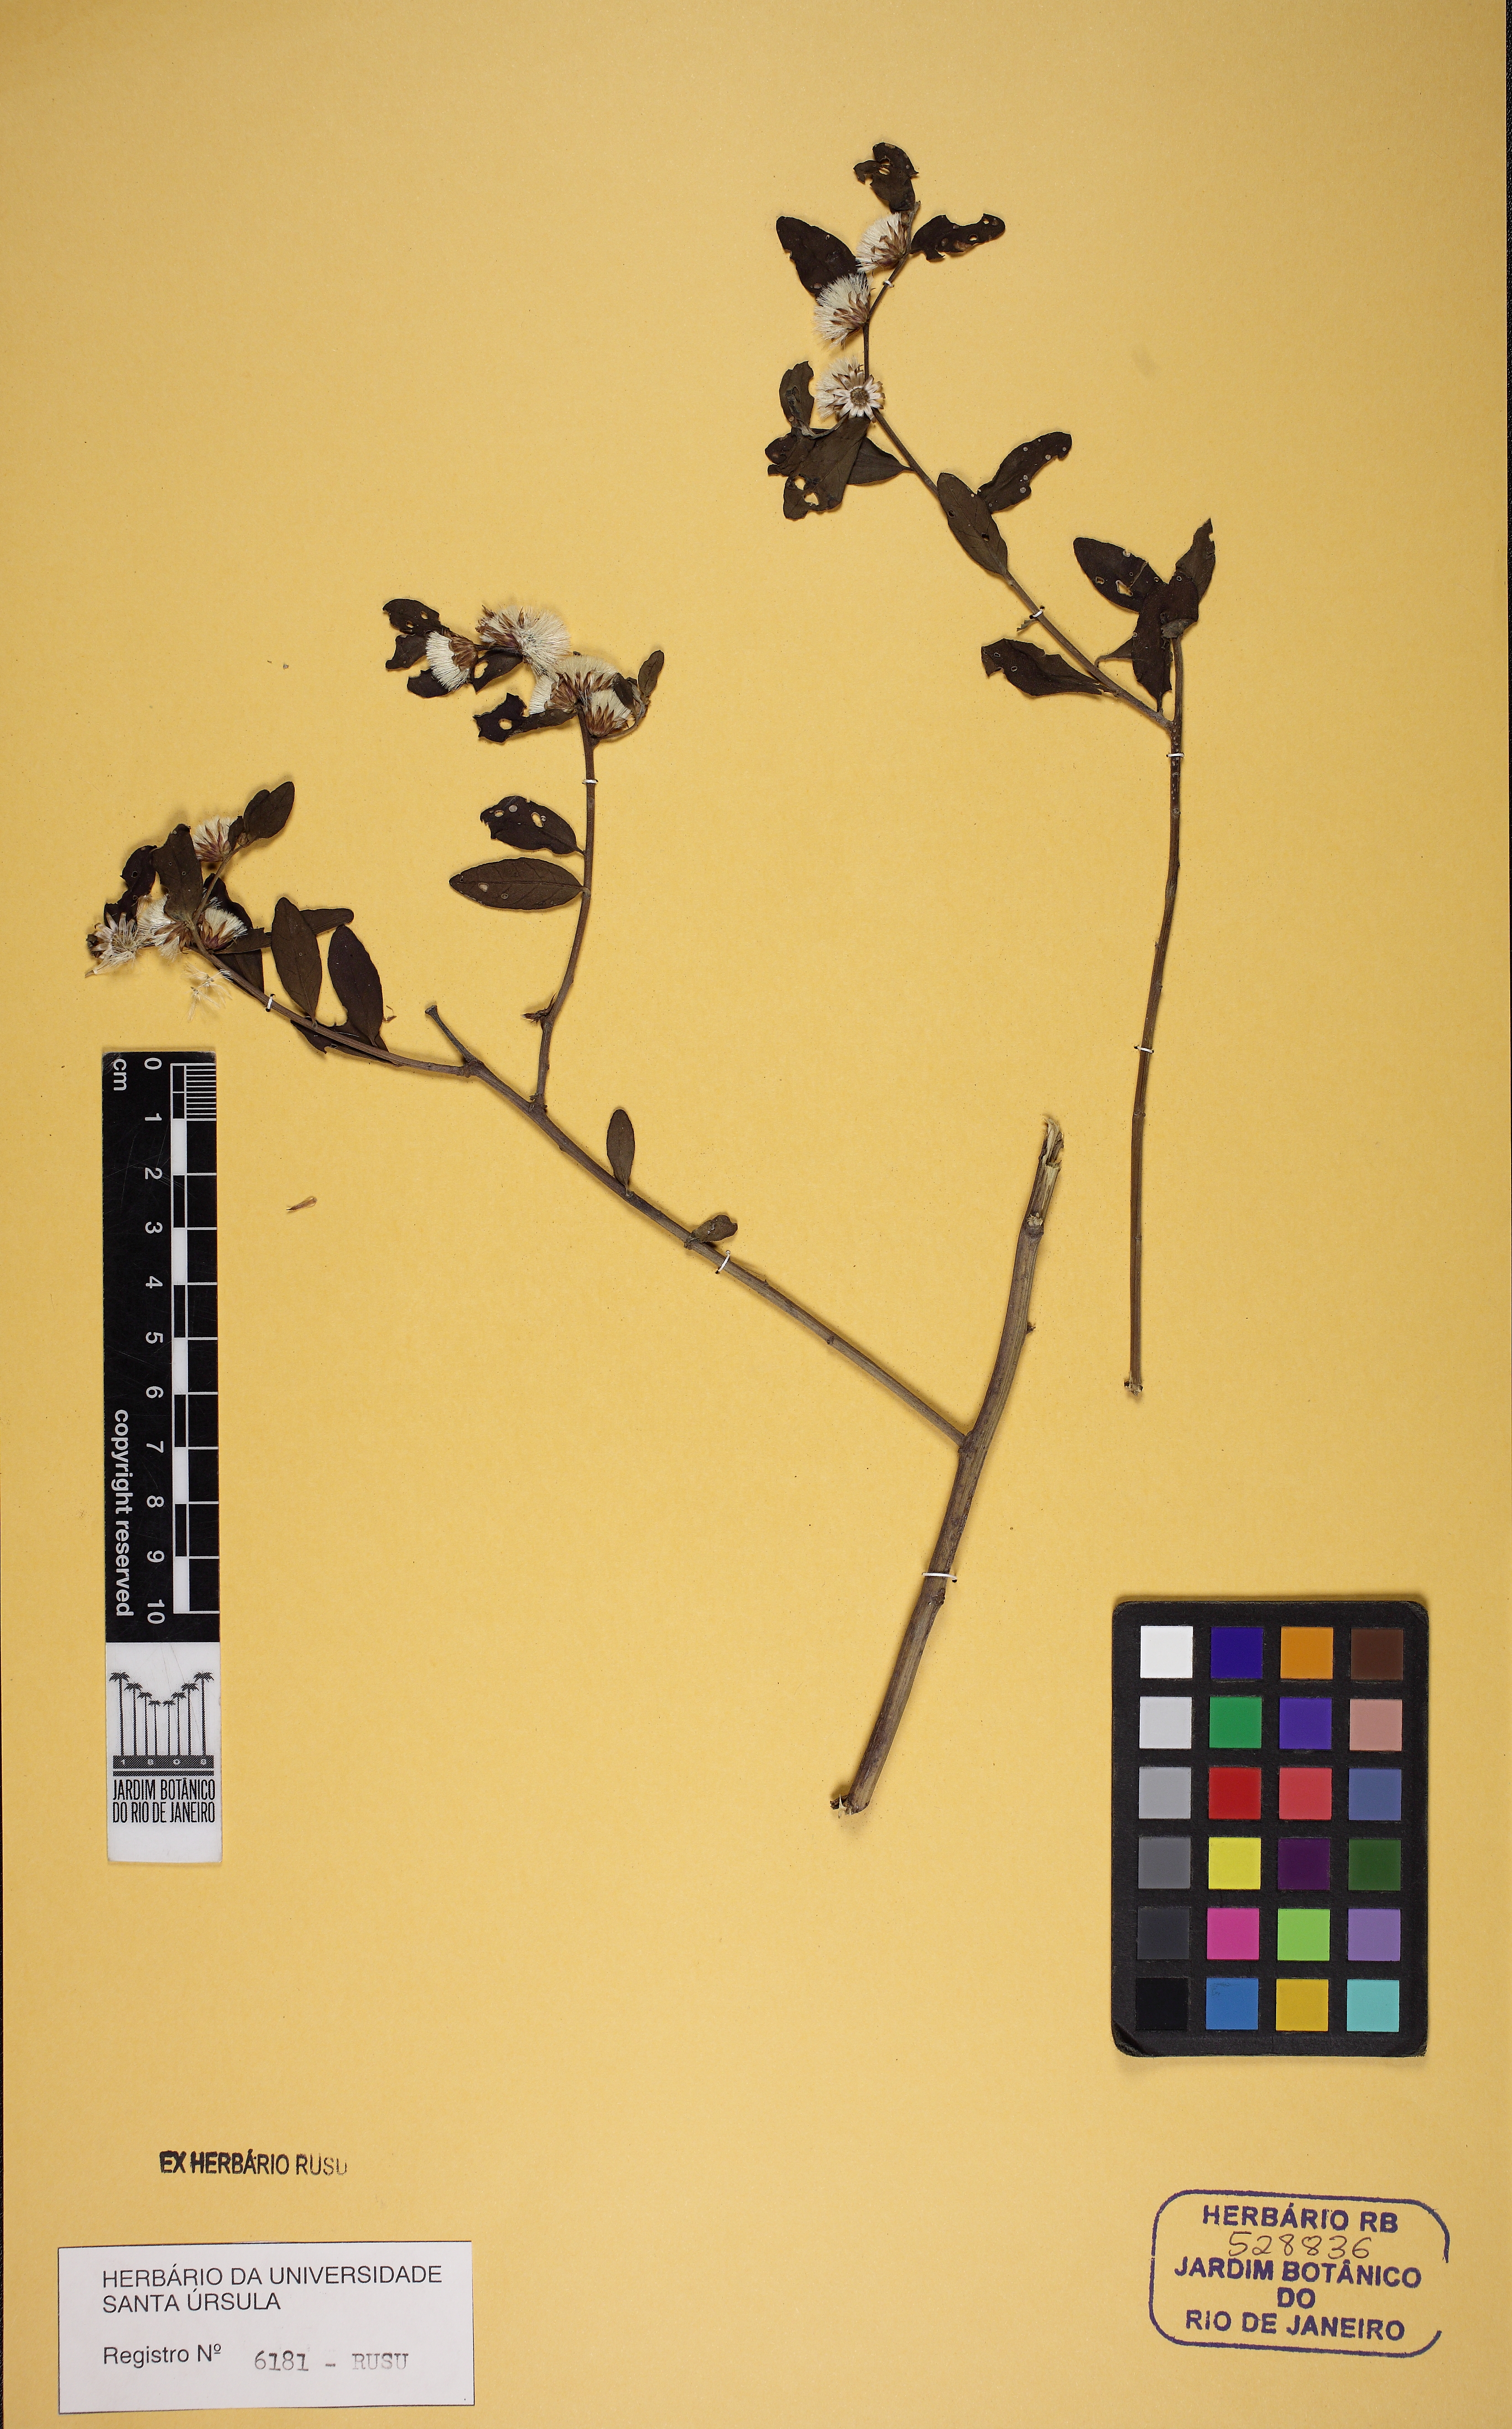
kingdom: Plantae
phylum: Tracheophyta
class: Magnoliopsida
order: Asterales
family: Asteraceae
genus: Lepidaploa
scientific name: Lepidaploa
